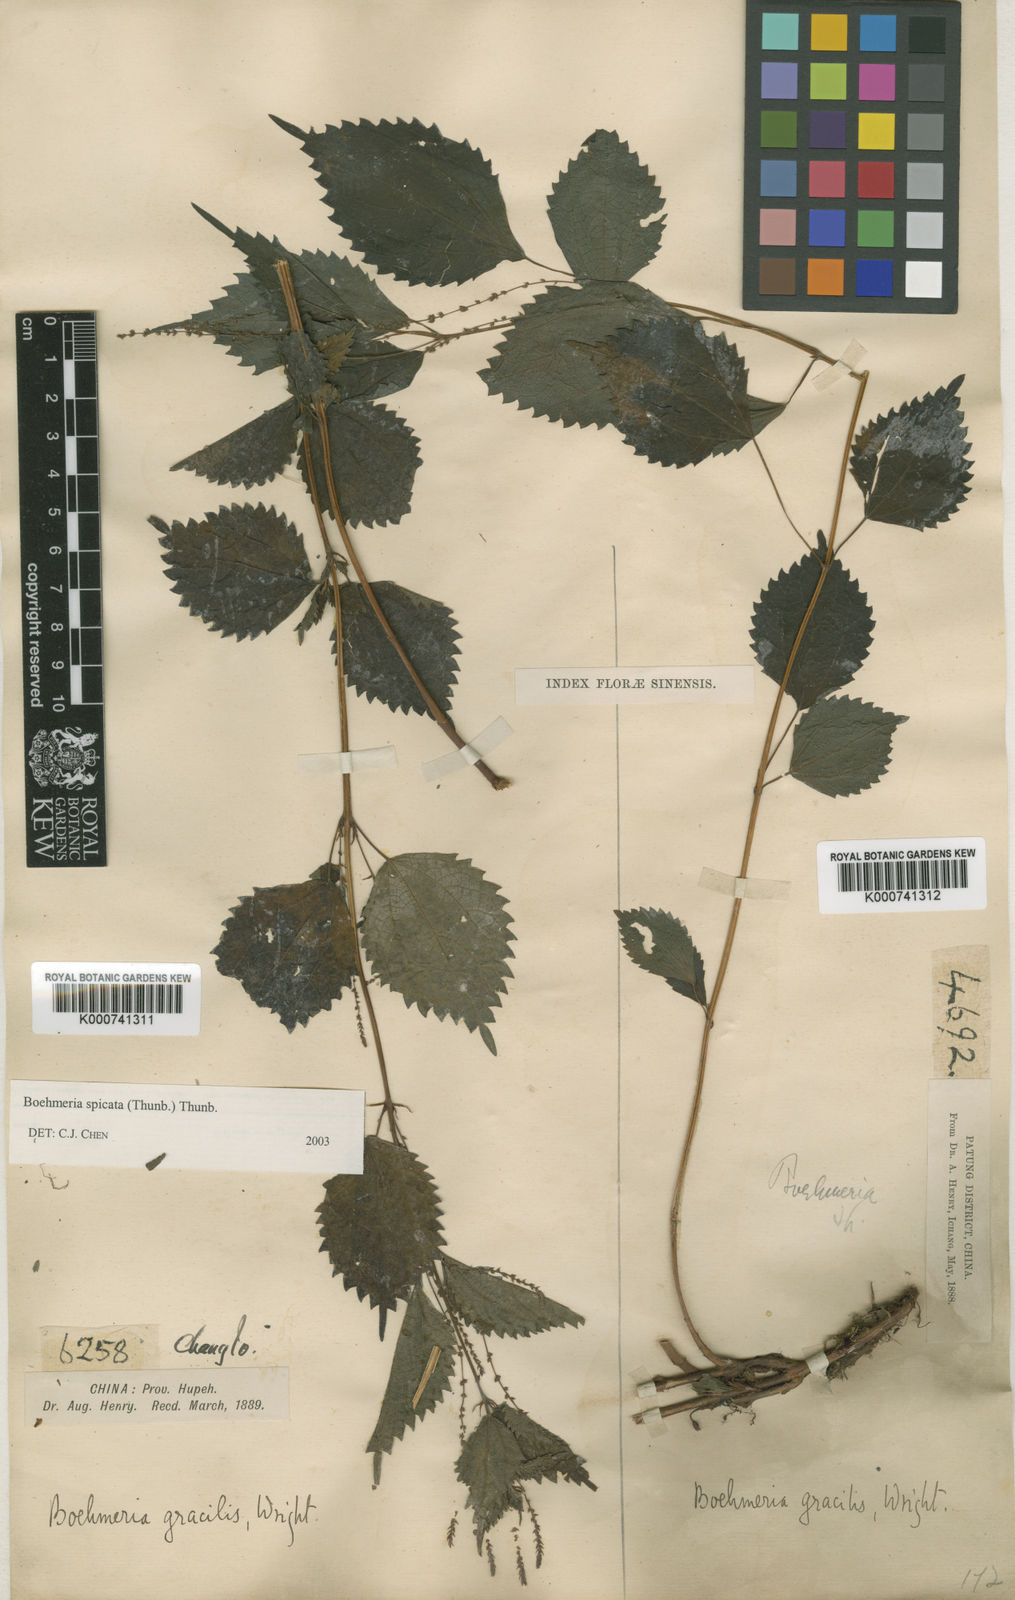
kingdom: Plantae
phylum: Tracheophyta
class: Magnoliopsida
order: Rosales
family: Urticaceae
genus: Boehmeria
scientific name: Boehmeria japonica
